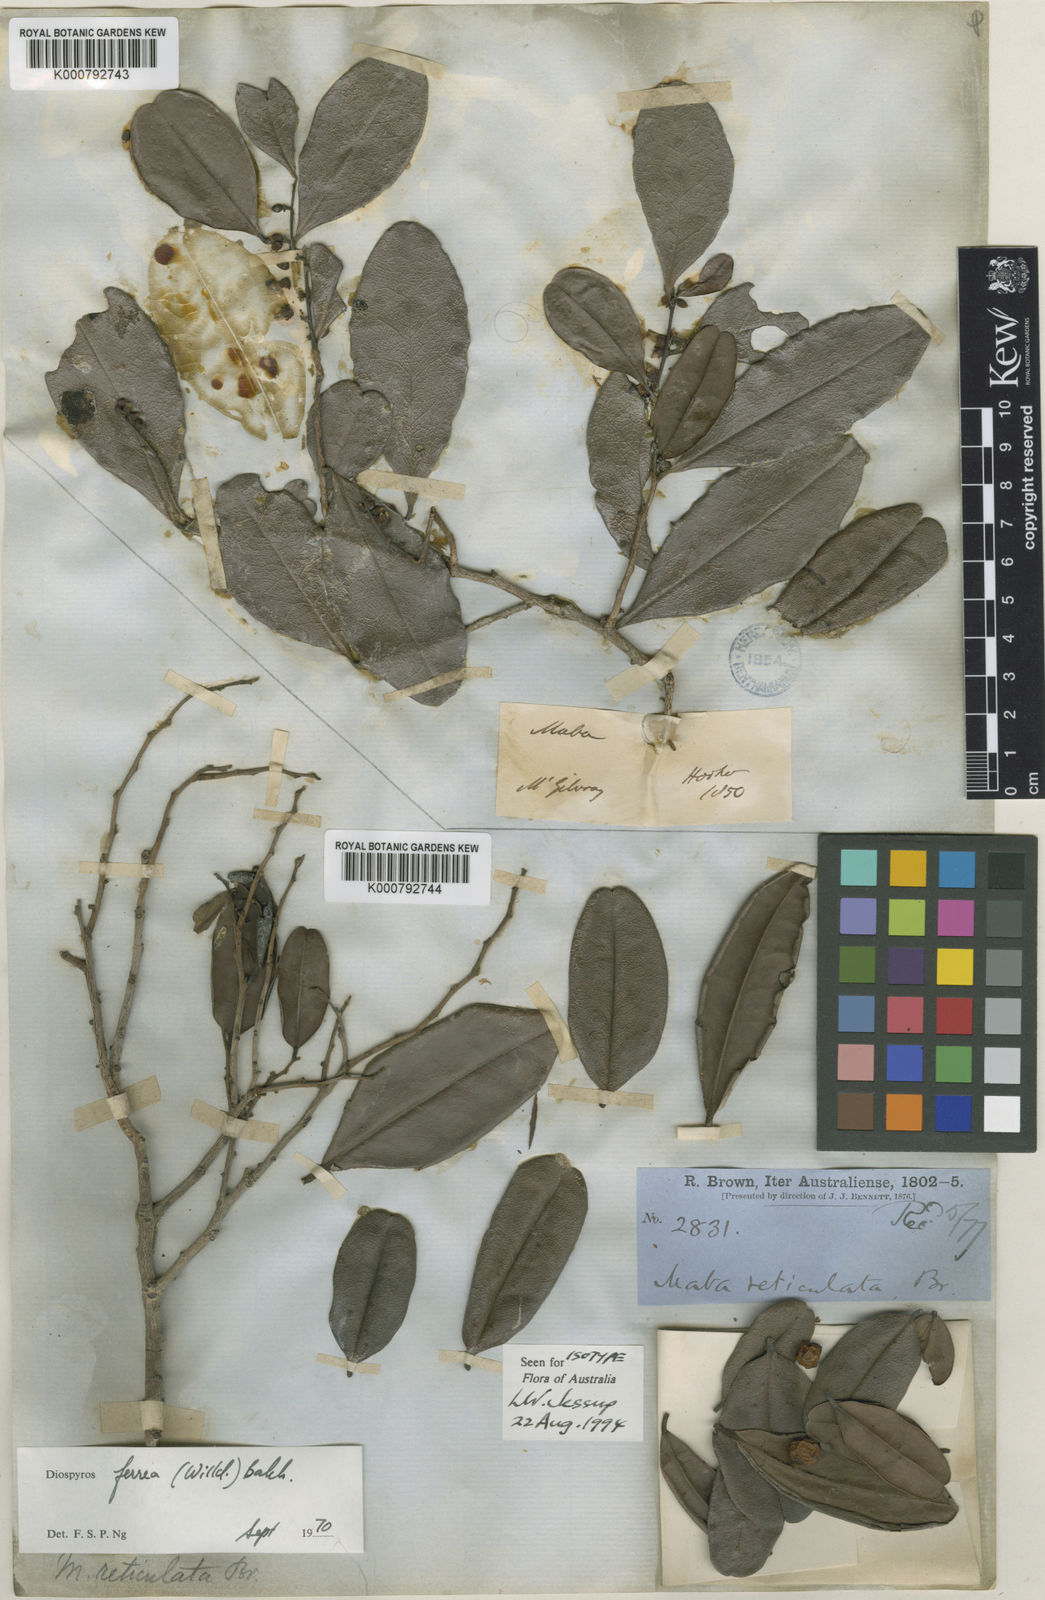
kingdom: Plantae
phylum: Tracheophyta
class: Magnoliopsida
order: Ericales
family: Ebenaceae
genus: Diospyros
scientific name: Diospyros compacta
